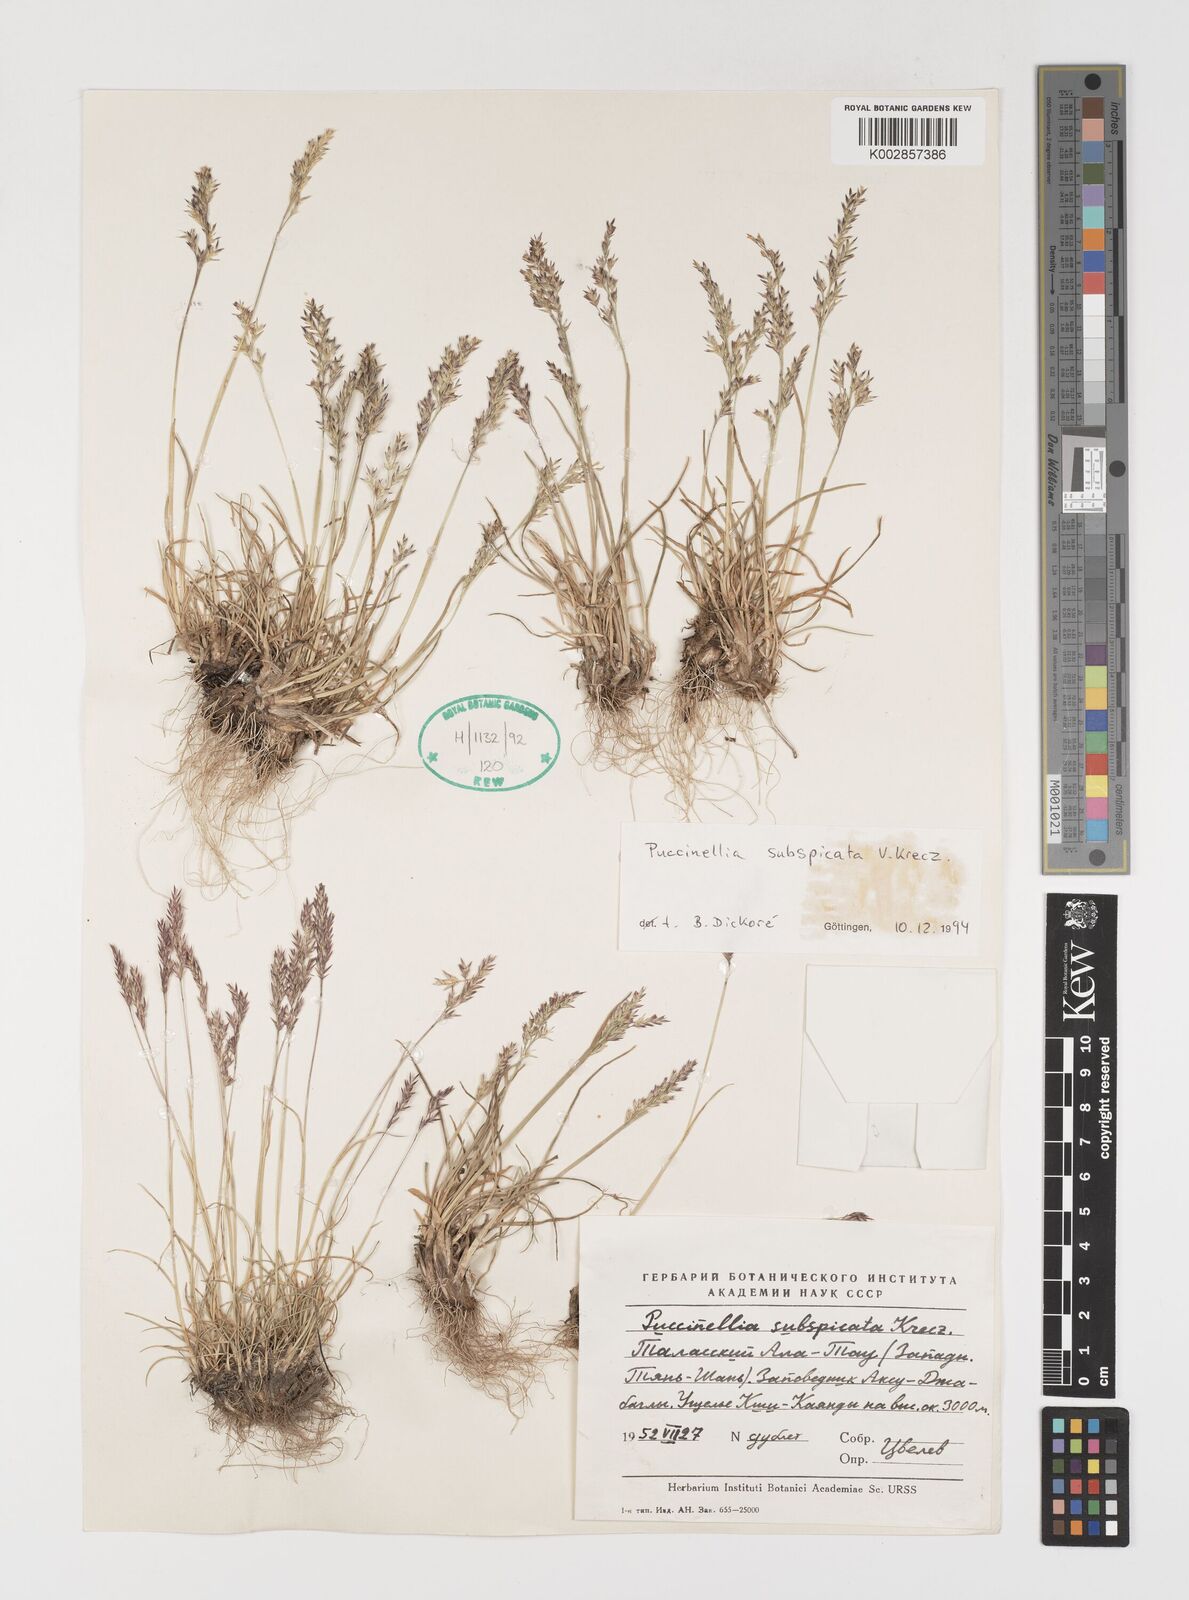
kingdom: Plantae
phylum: Tracheophyta
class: Liliopsida
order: Poales
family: Poaceae
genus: Puccinellia
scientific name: Puccinellia subspicata
